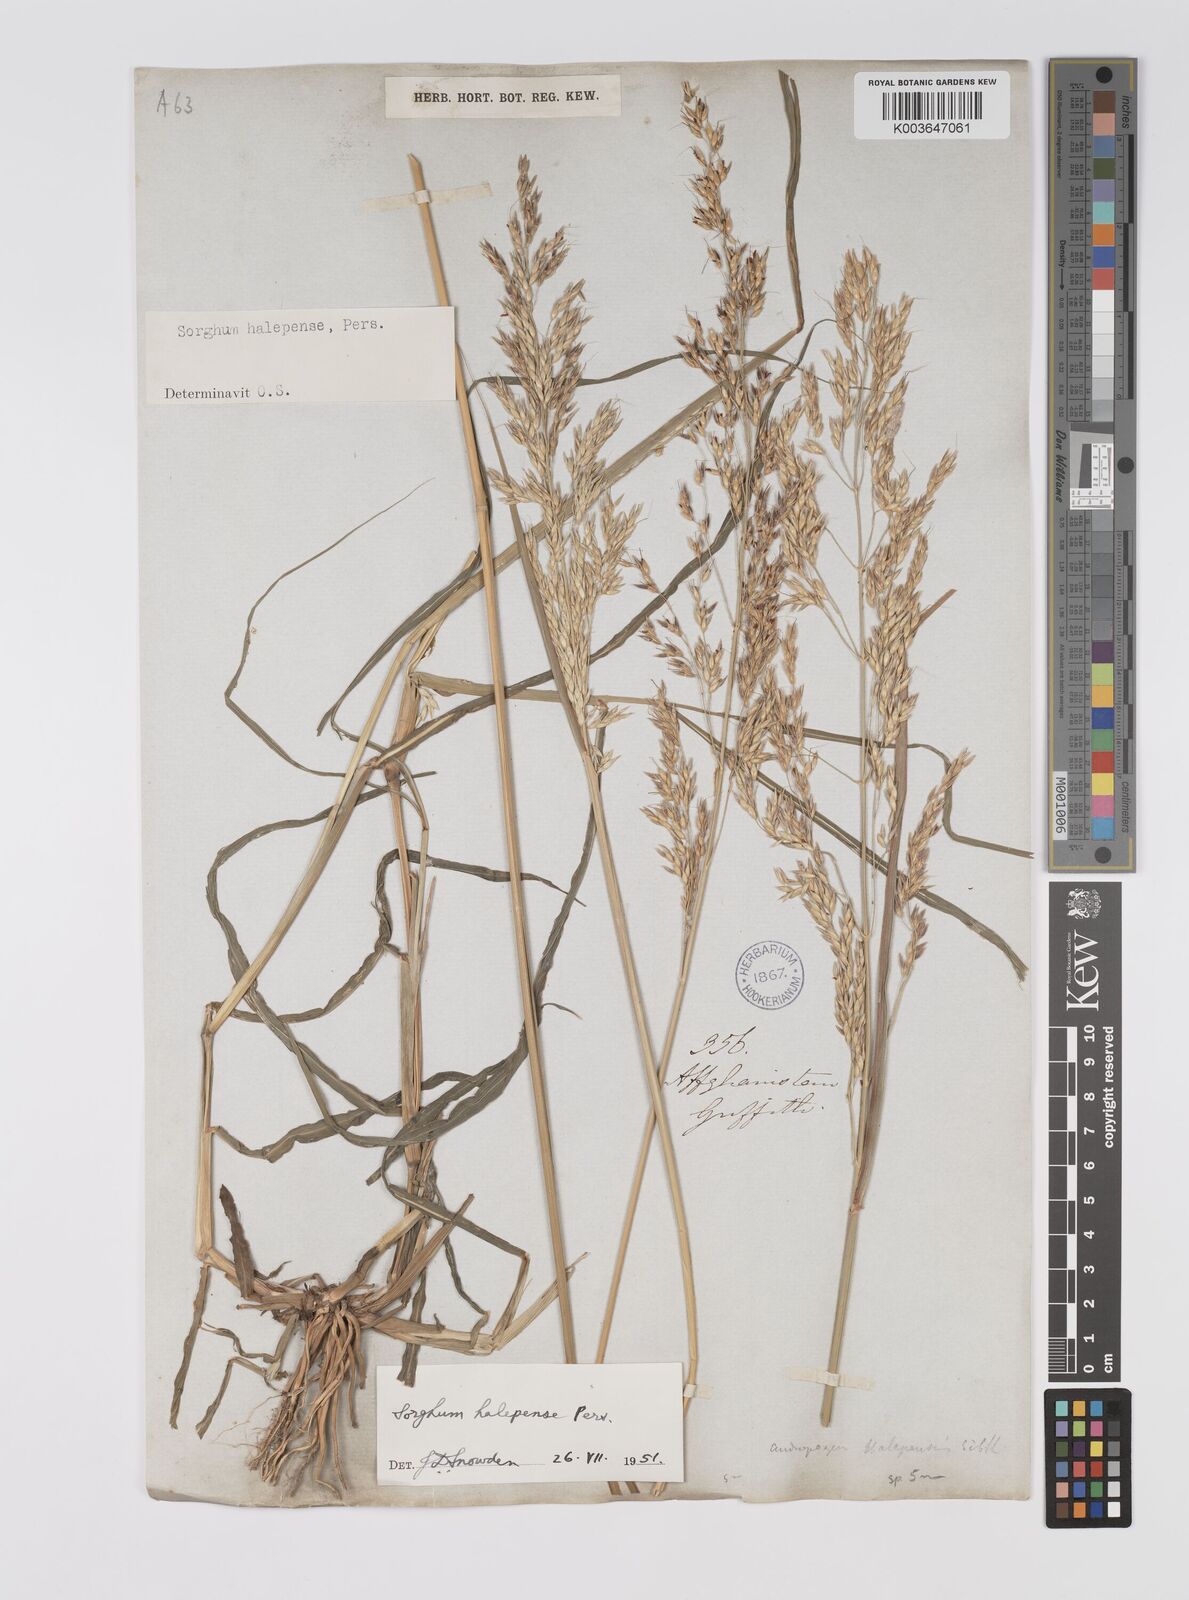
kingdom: Plantae
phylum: Tracheophyta
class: Liliopsida
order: Poales
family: Poaceae
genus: Sorghum
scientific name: Sorghum halepense
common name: Johnson-grass
